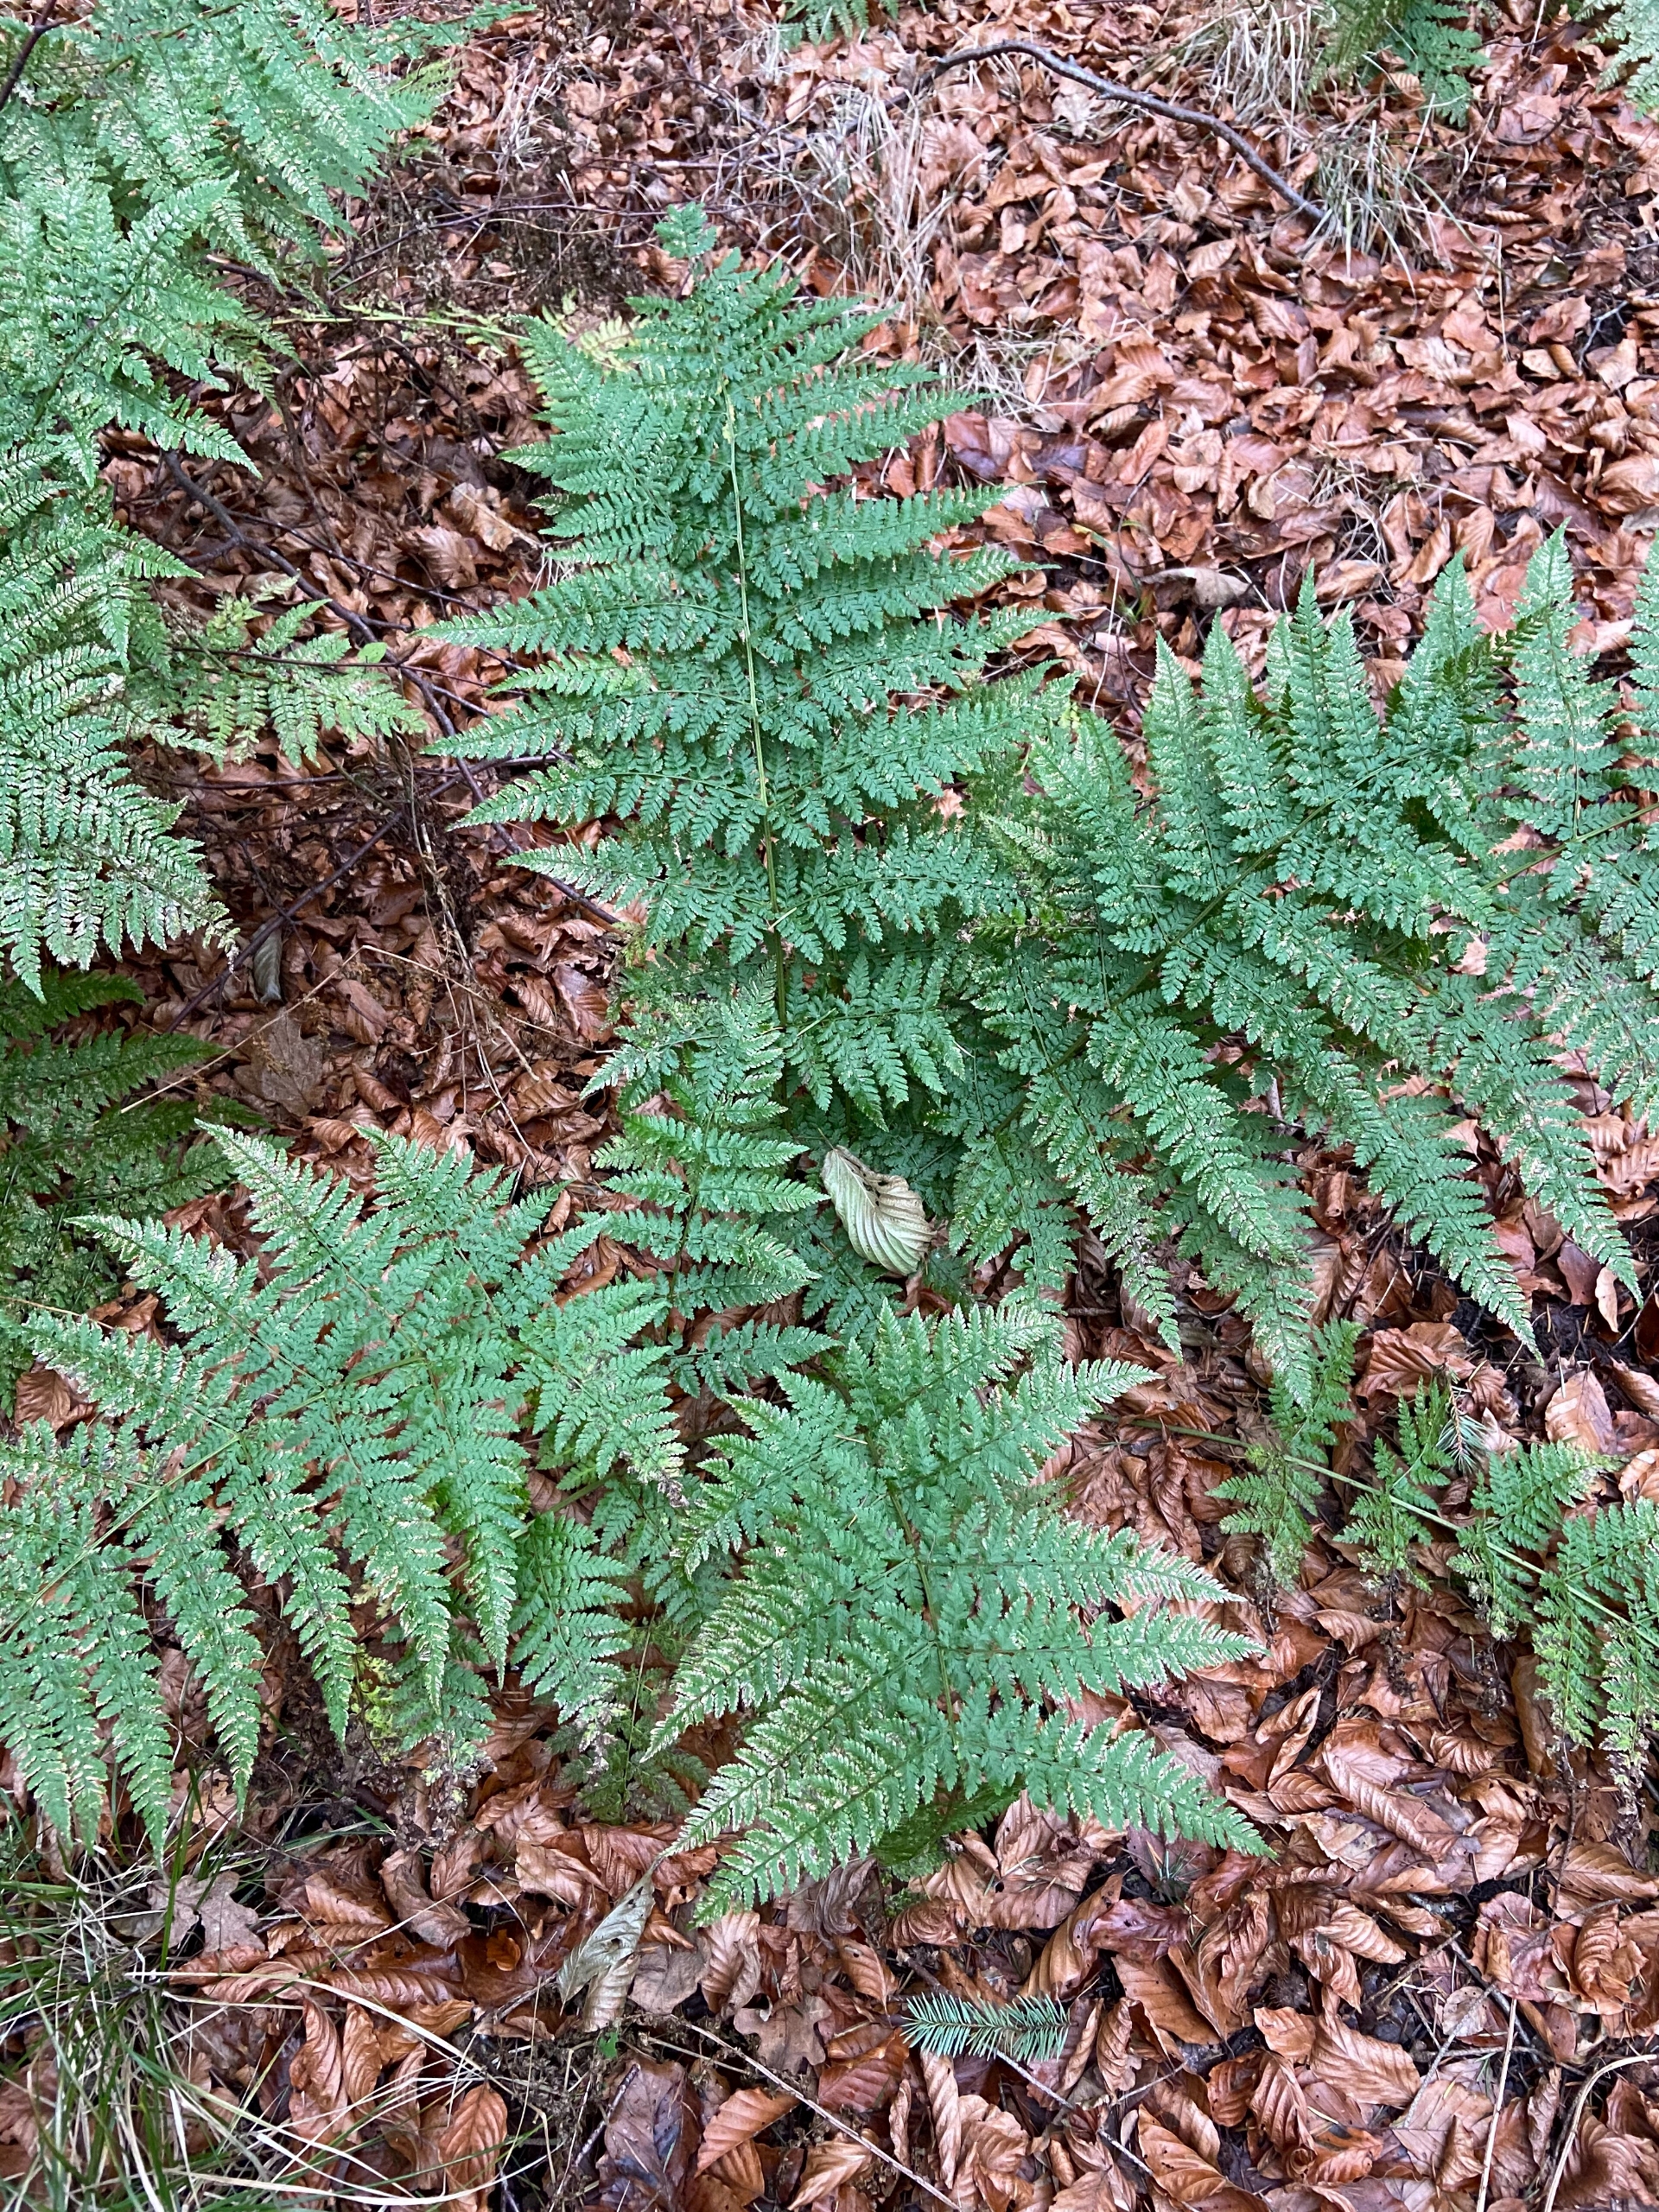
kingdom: Plantae
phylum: Tracheophyta
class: Polypodiopsida
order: Polypodiales
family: Dryopteridaceae
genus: Dryopteris
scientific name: Dryopteris dilatata
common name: Bredbladet mangeløv
